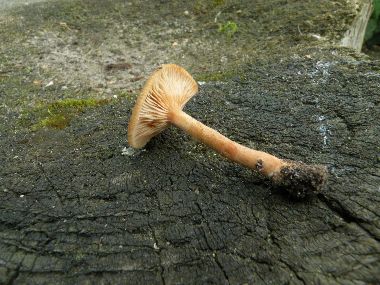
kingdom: Fungi
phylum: Basidiomycota
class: Agaricomycetes
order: Russulales
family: Russulaceae
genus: Lactarius
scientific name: Lactarius cyathuliformis
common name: mørkøjet mælkehat
